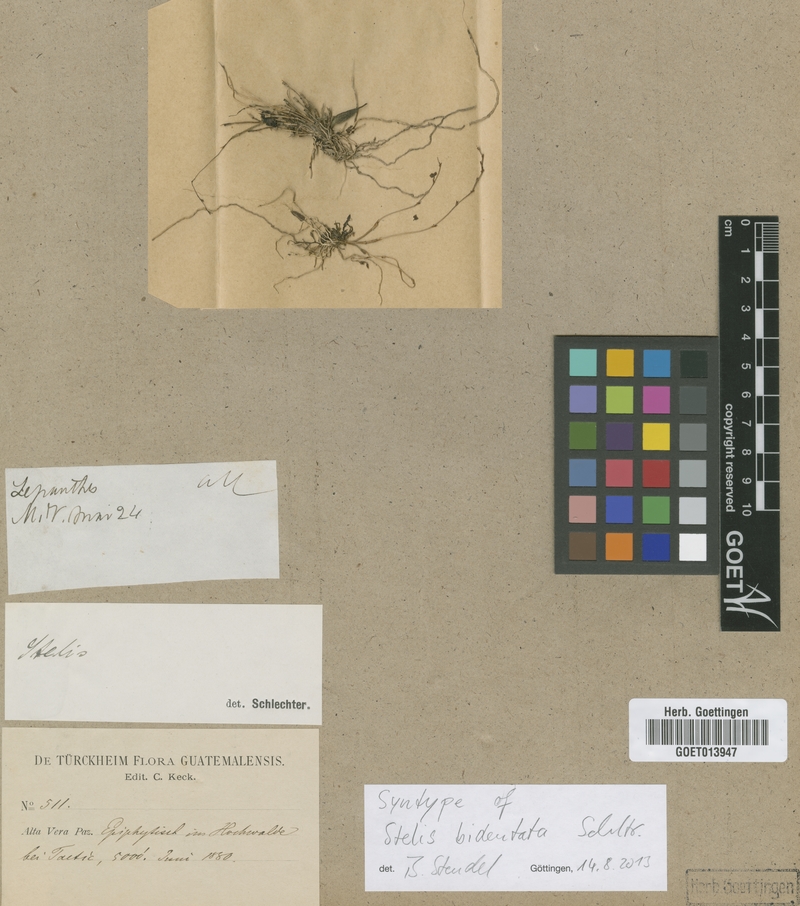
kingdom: Plantae
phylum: Tracheophyta
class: Liliopsida
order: Asparagales
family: Orchidaceae
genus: Stelis
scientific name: Stelis parvula
